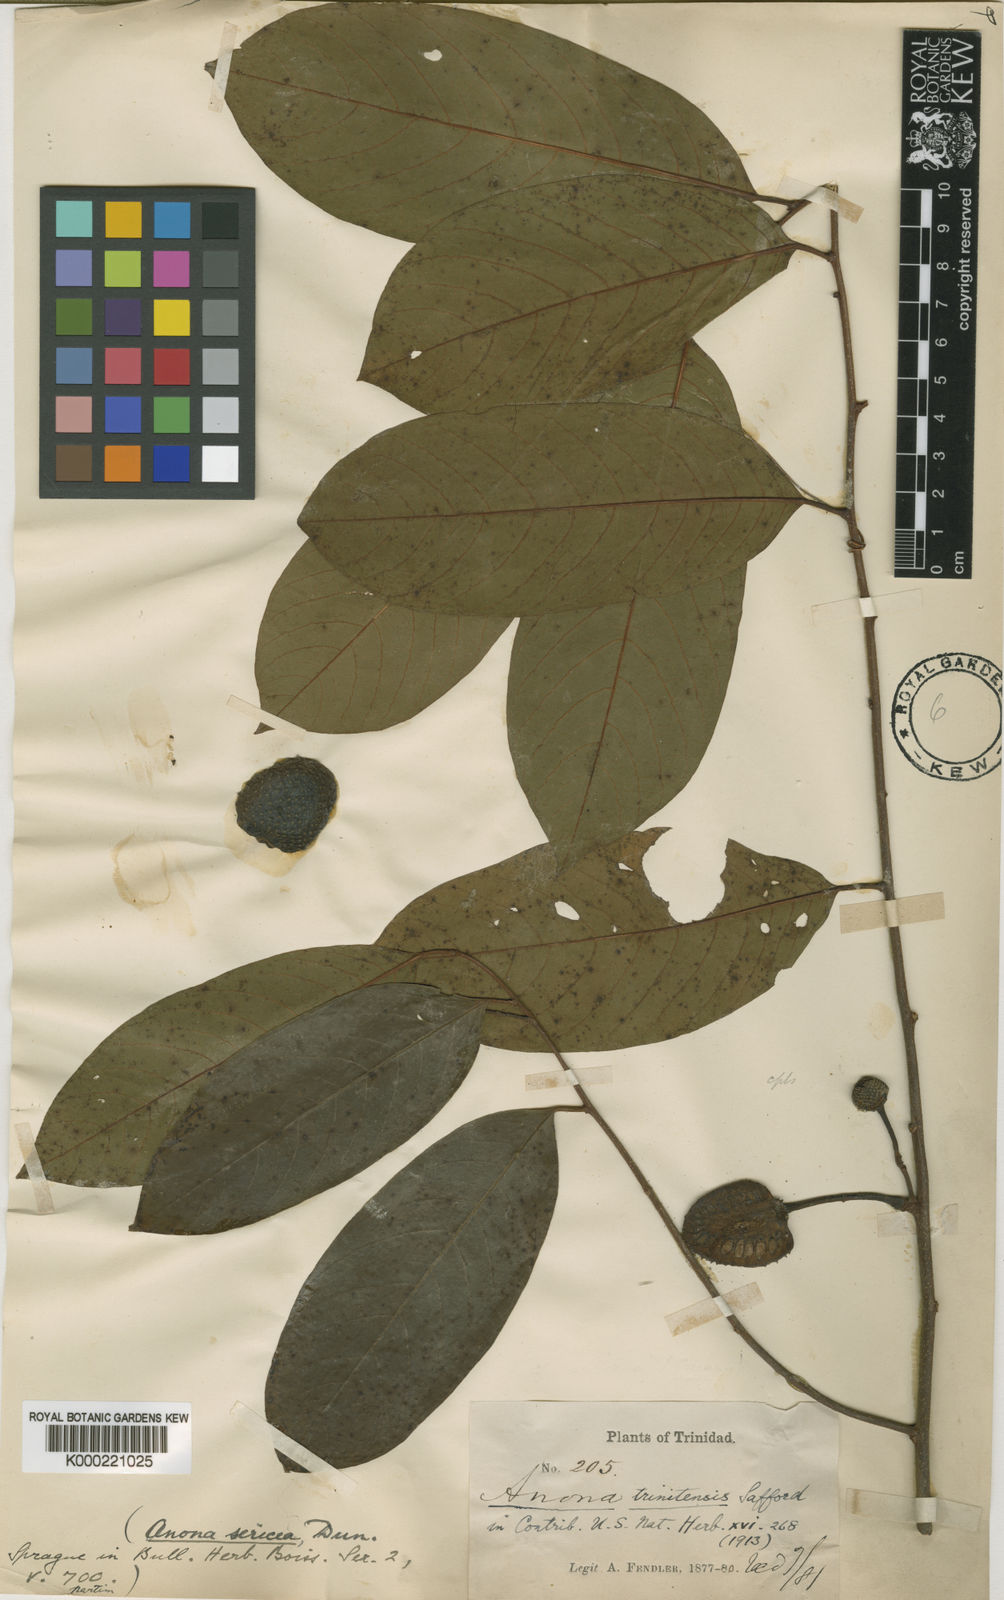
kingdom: Plantae
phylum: Tracheophyta
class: Magnoliopsida
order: Magnoliales
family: Annonaceae
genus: Annona
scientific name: Annona sericea
